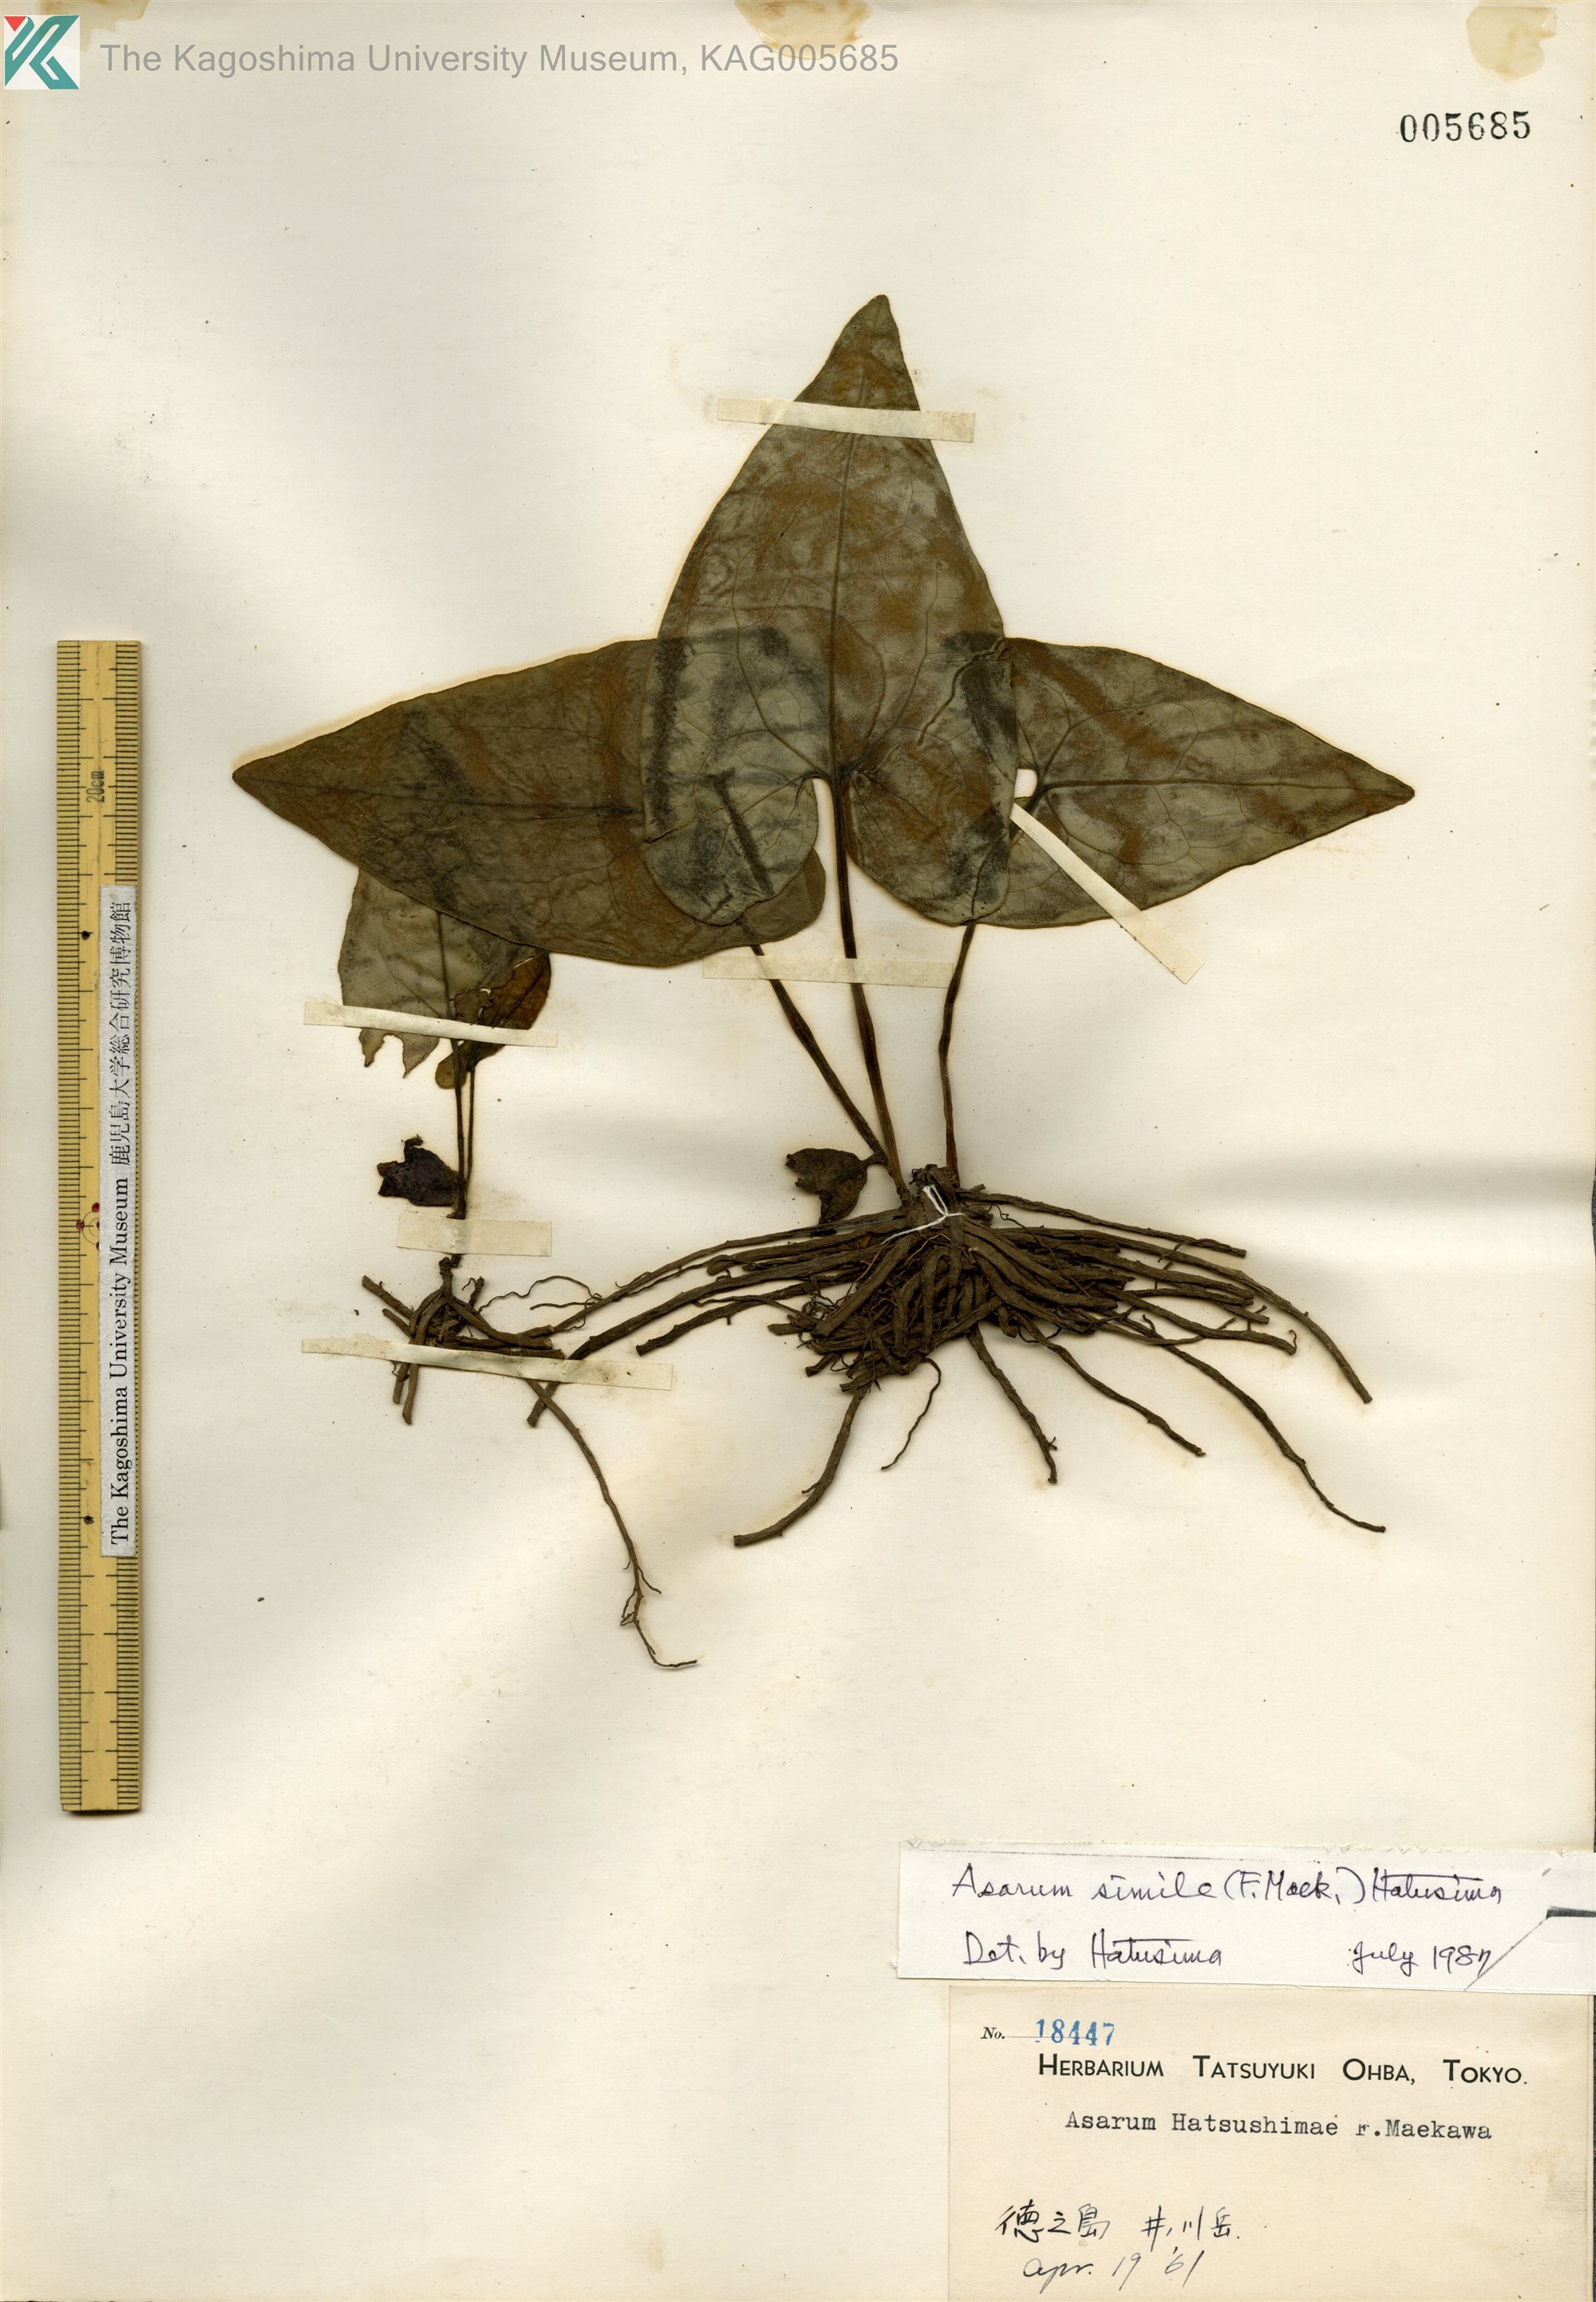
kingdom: Plantae
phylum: Tracheophyta
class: Magnoliopsida
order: Piperales
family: Aristolochiaceae
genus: Asarum
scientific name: Asarum simile
